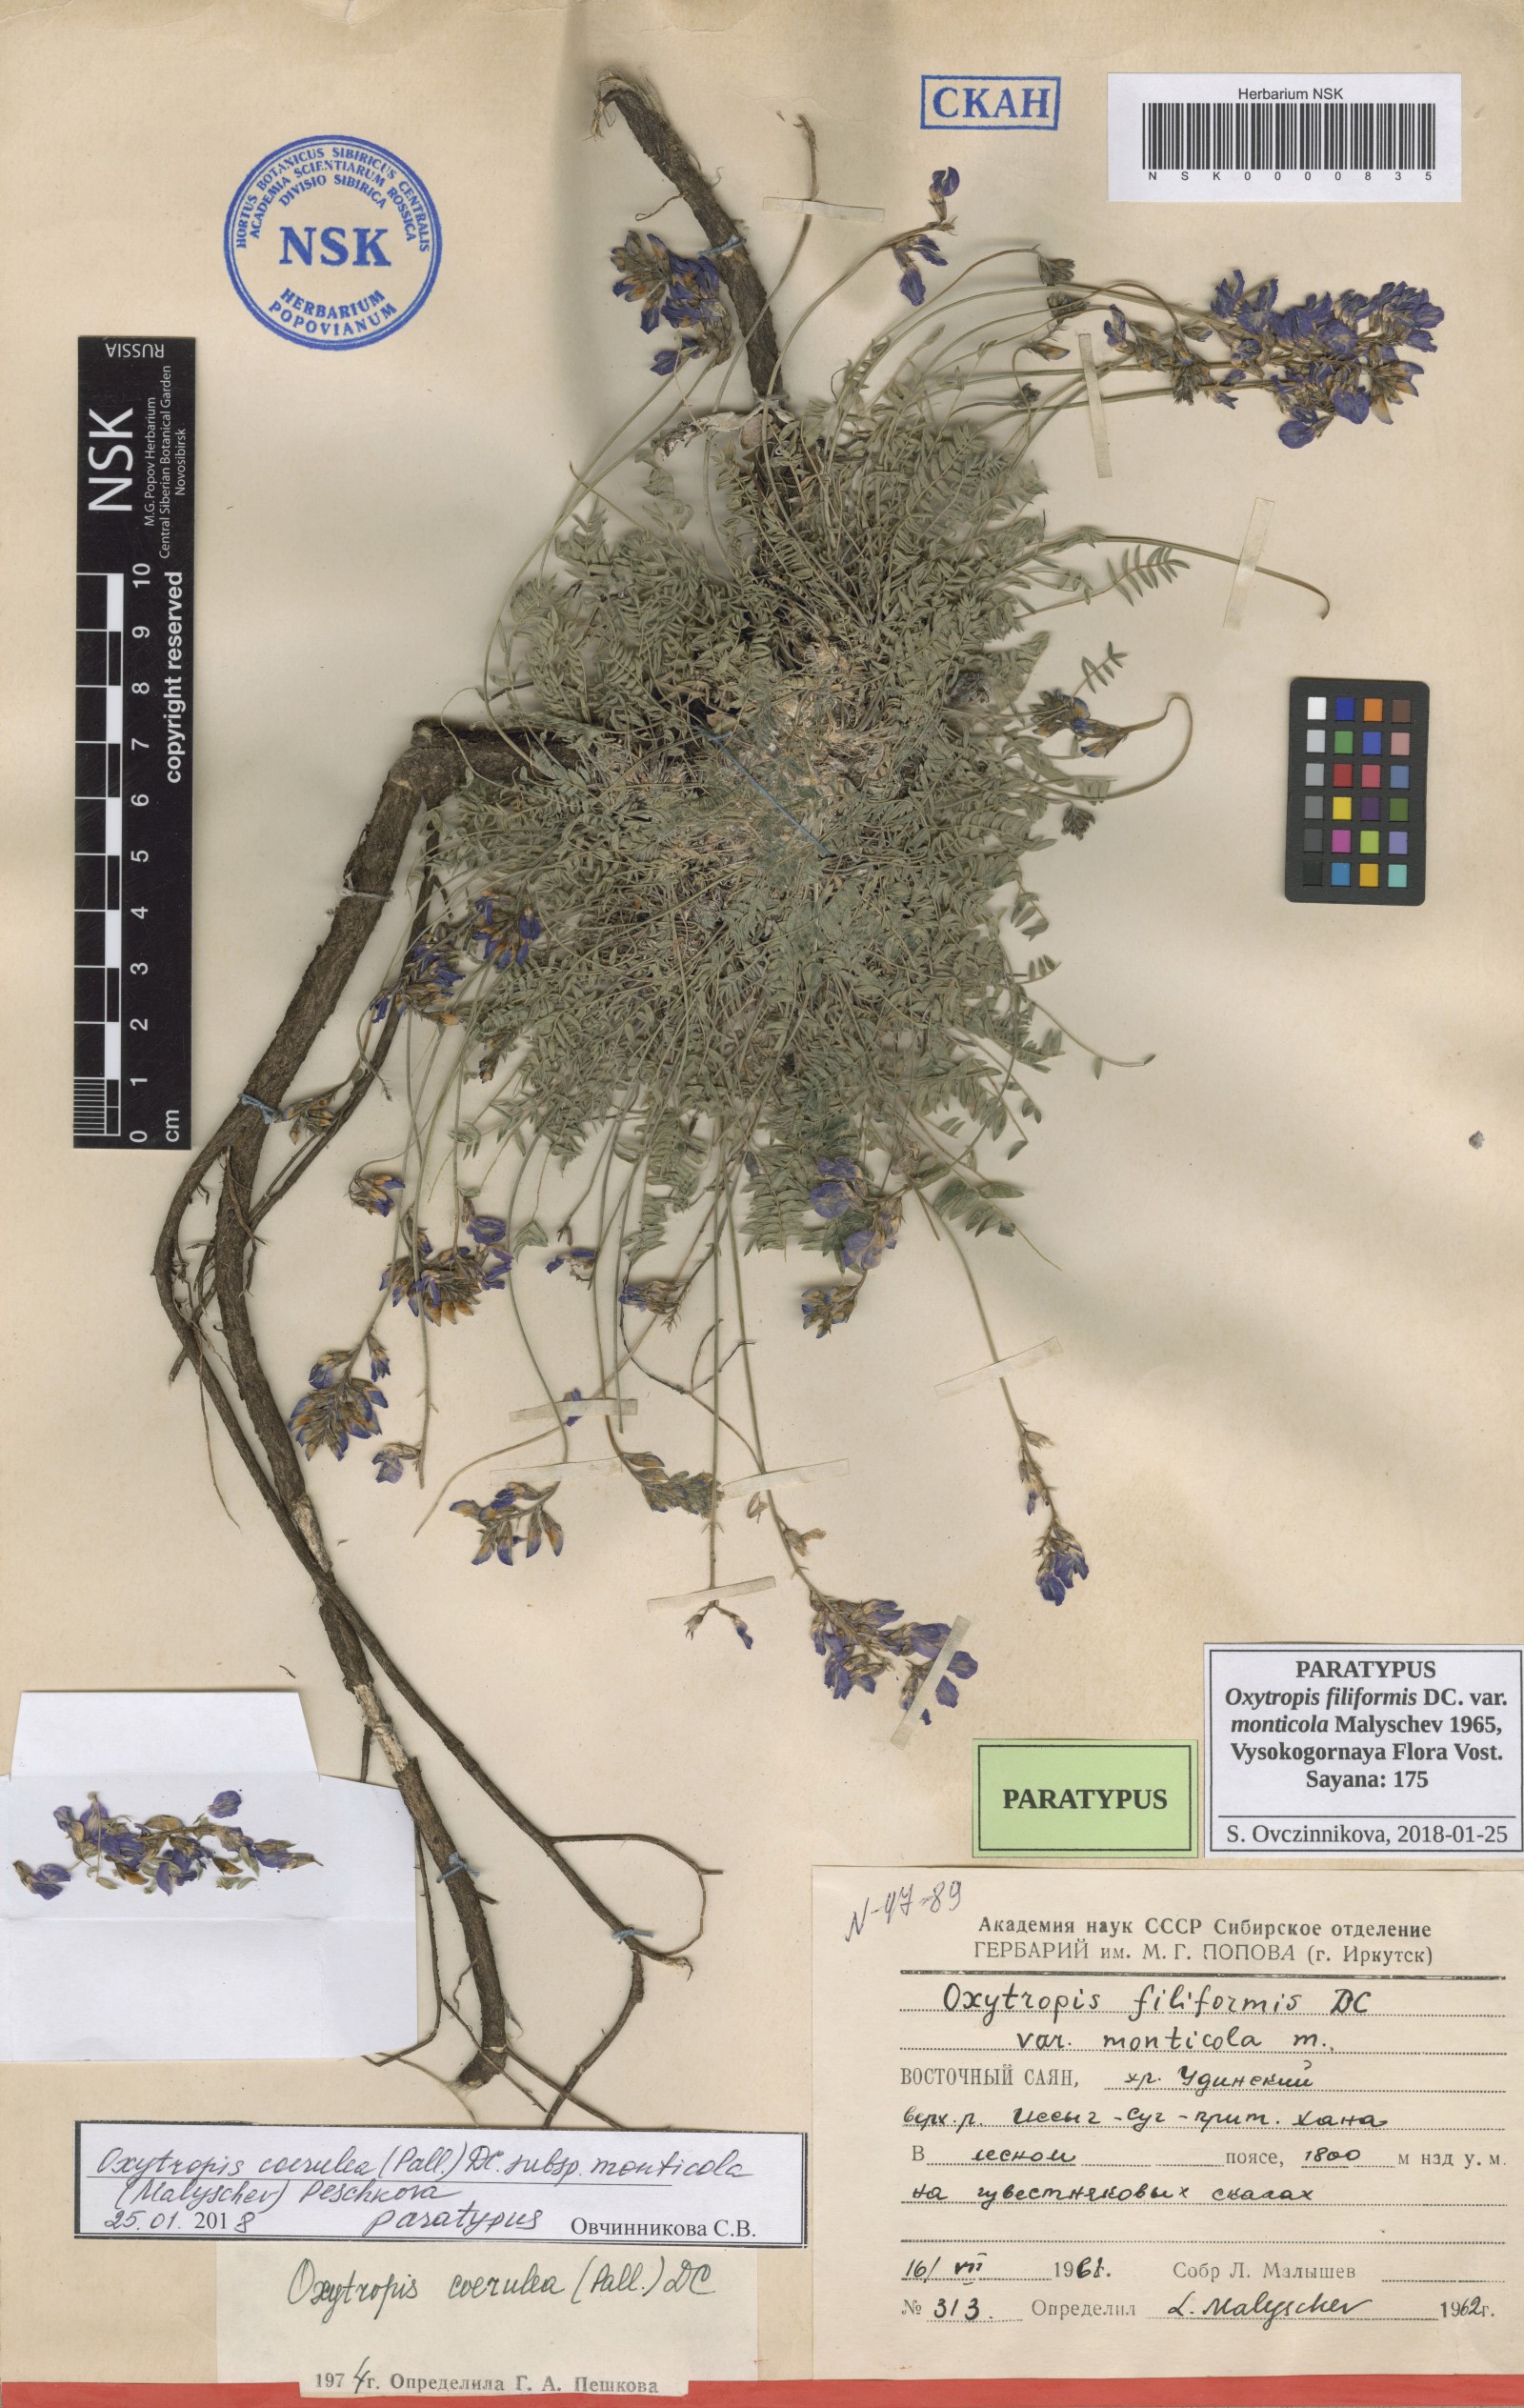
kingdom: Plantae
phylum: Tracheophyta
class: Magnoliopsida
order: Fabales
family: Fabaceae
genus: Oxytropis
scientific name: Oxytropis coerulea
